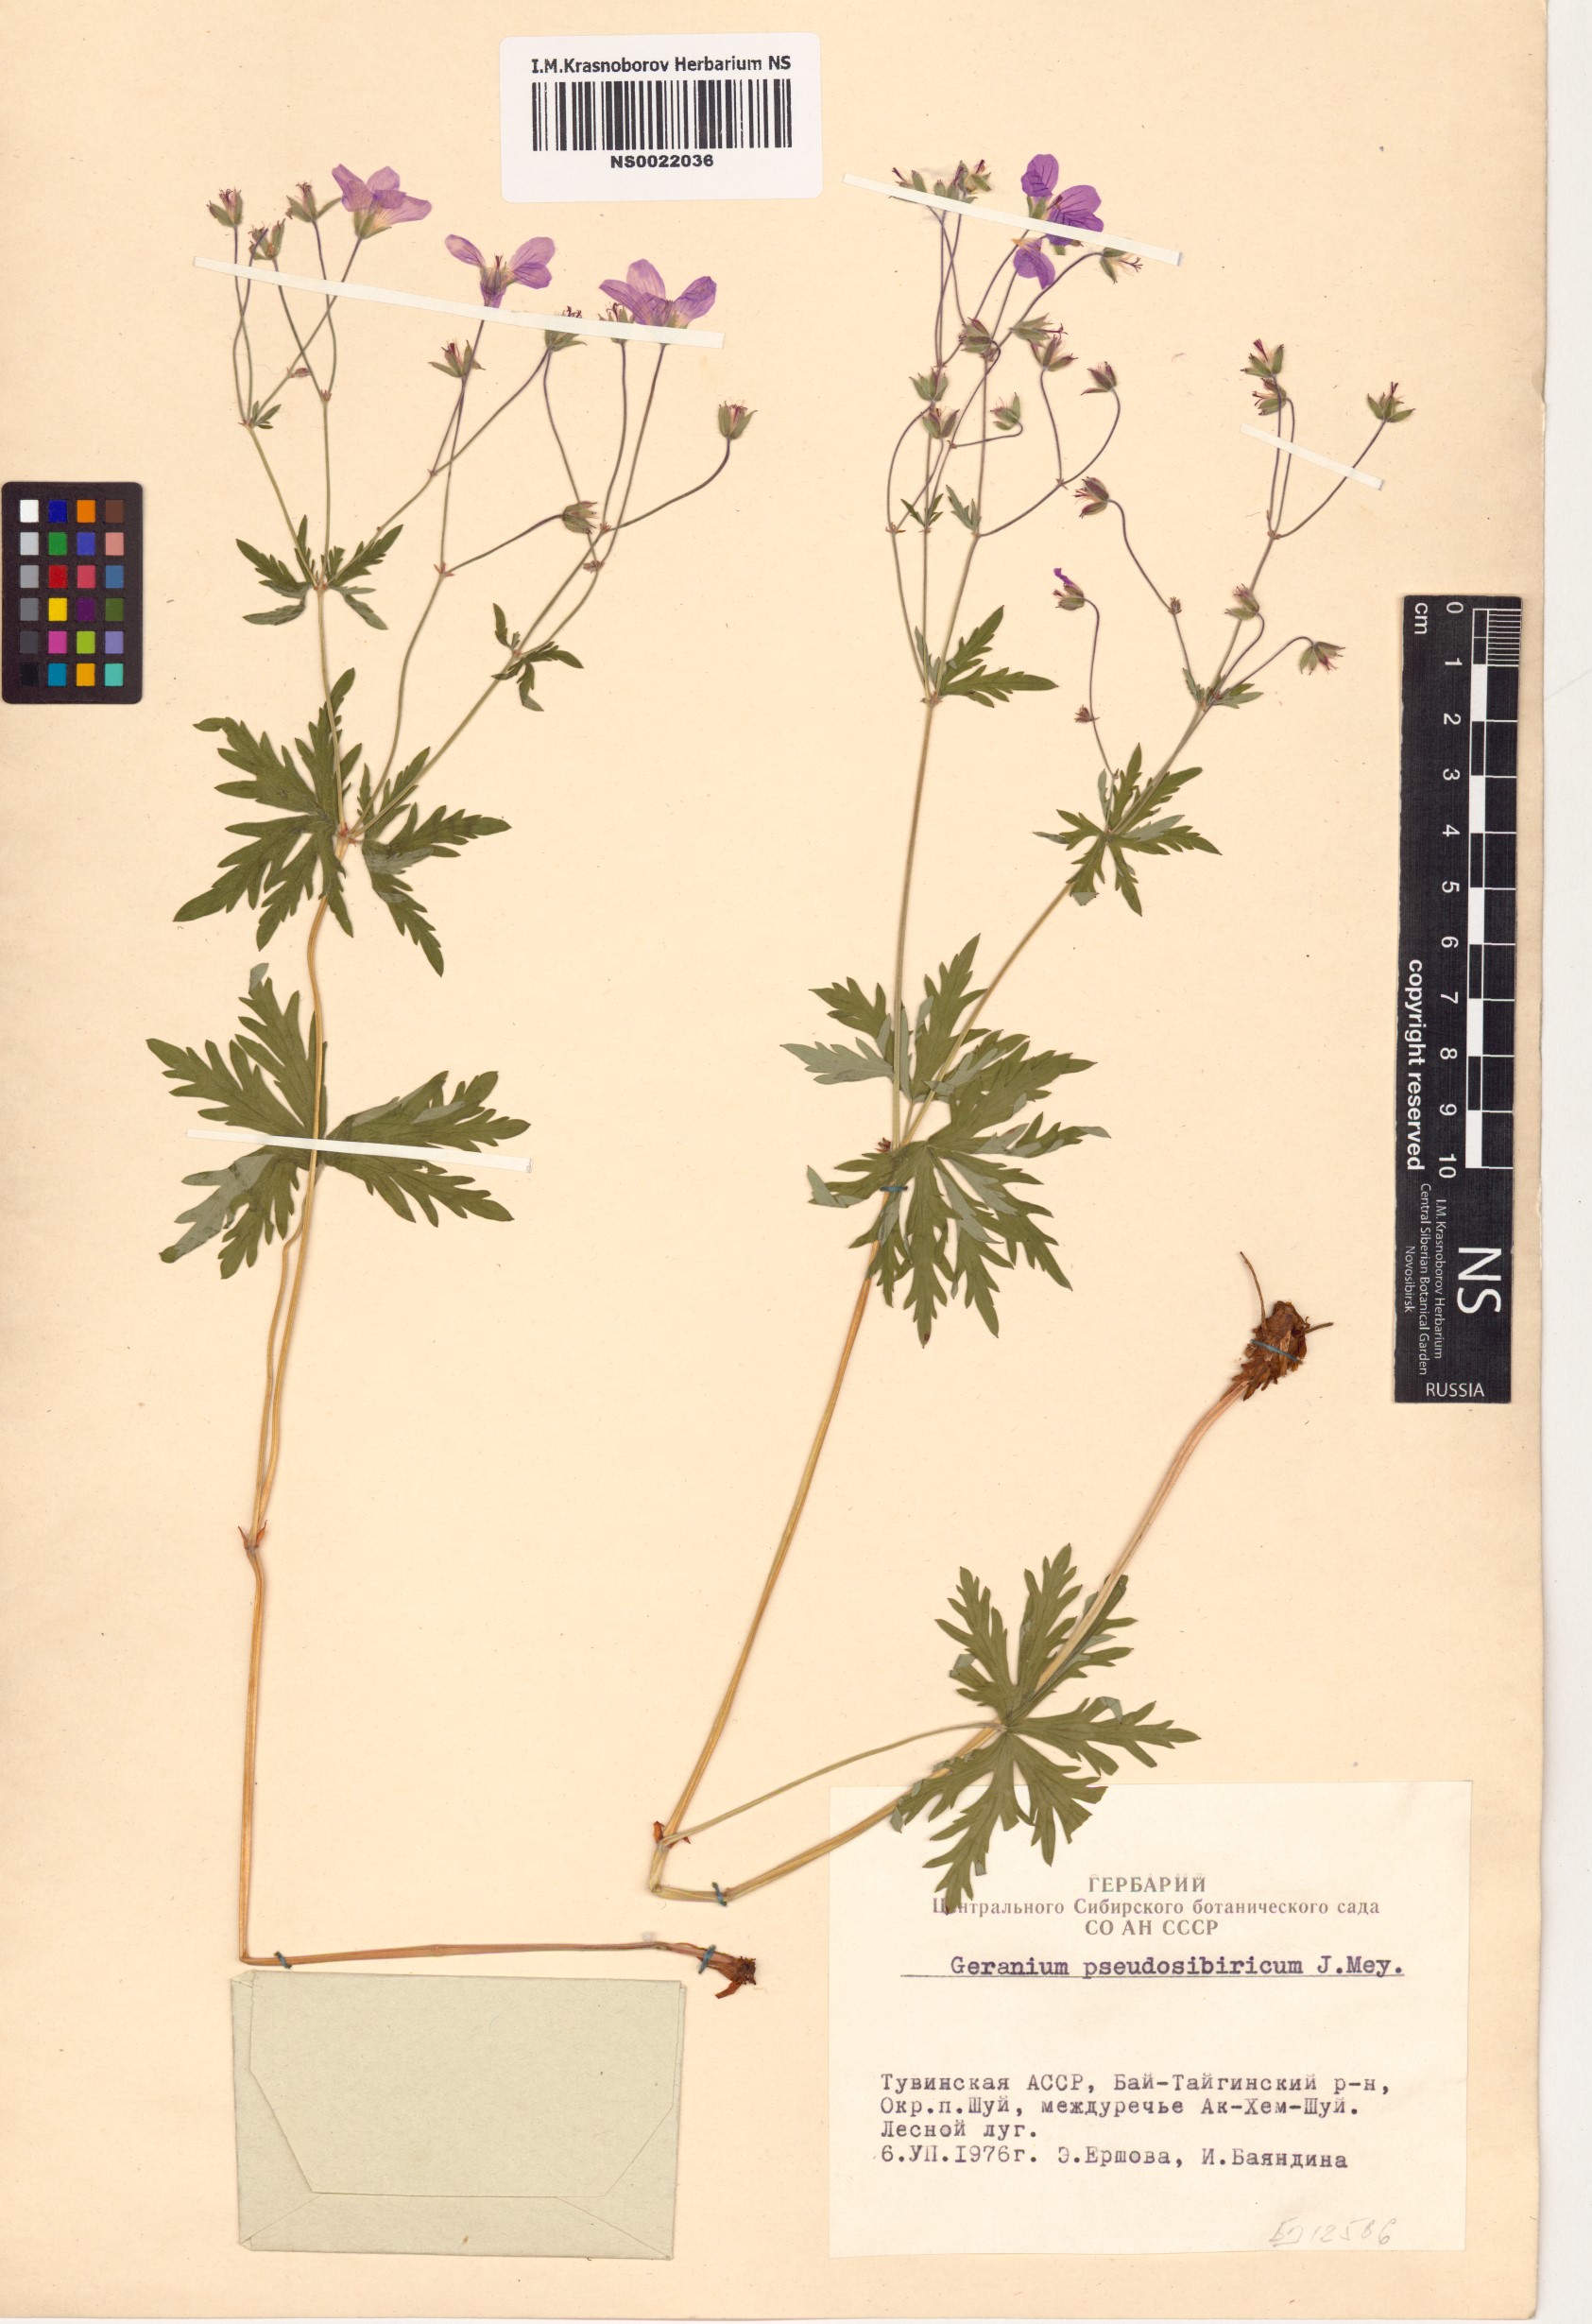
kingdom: Plantae
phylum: Tracheophyta
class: Magnoliopsida
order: Geraniales
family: Geraniaceae
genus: Geranium
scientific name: Geranium pseudosibiricum
